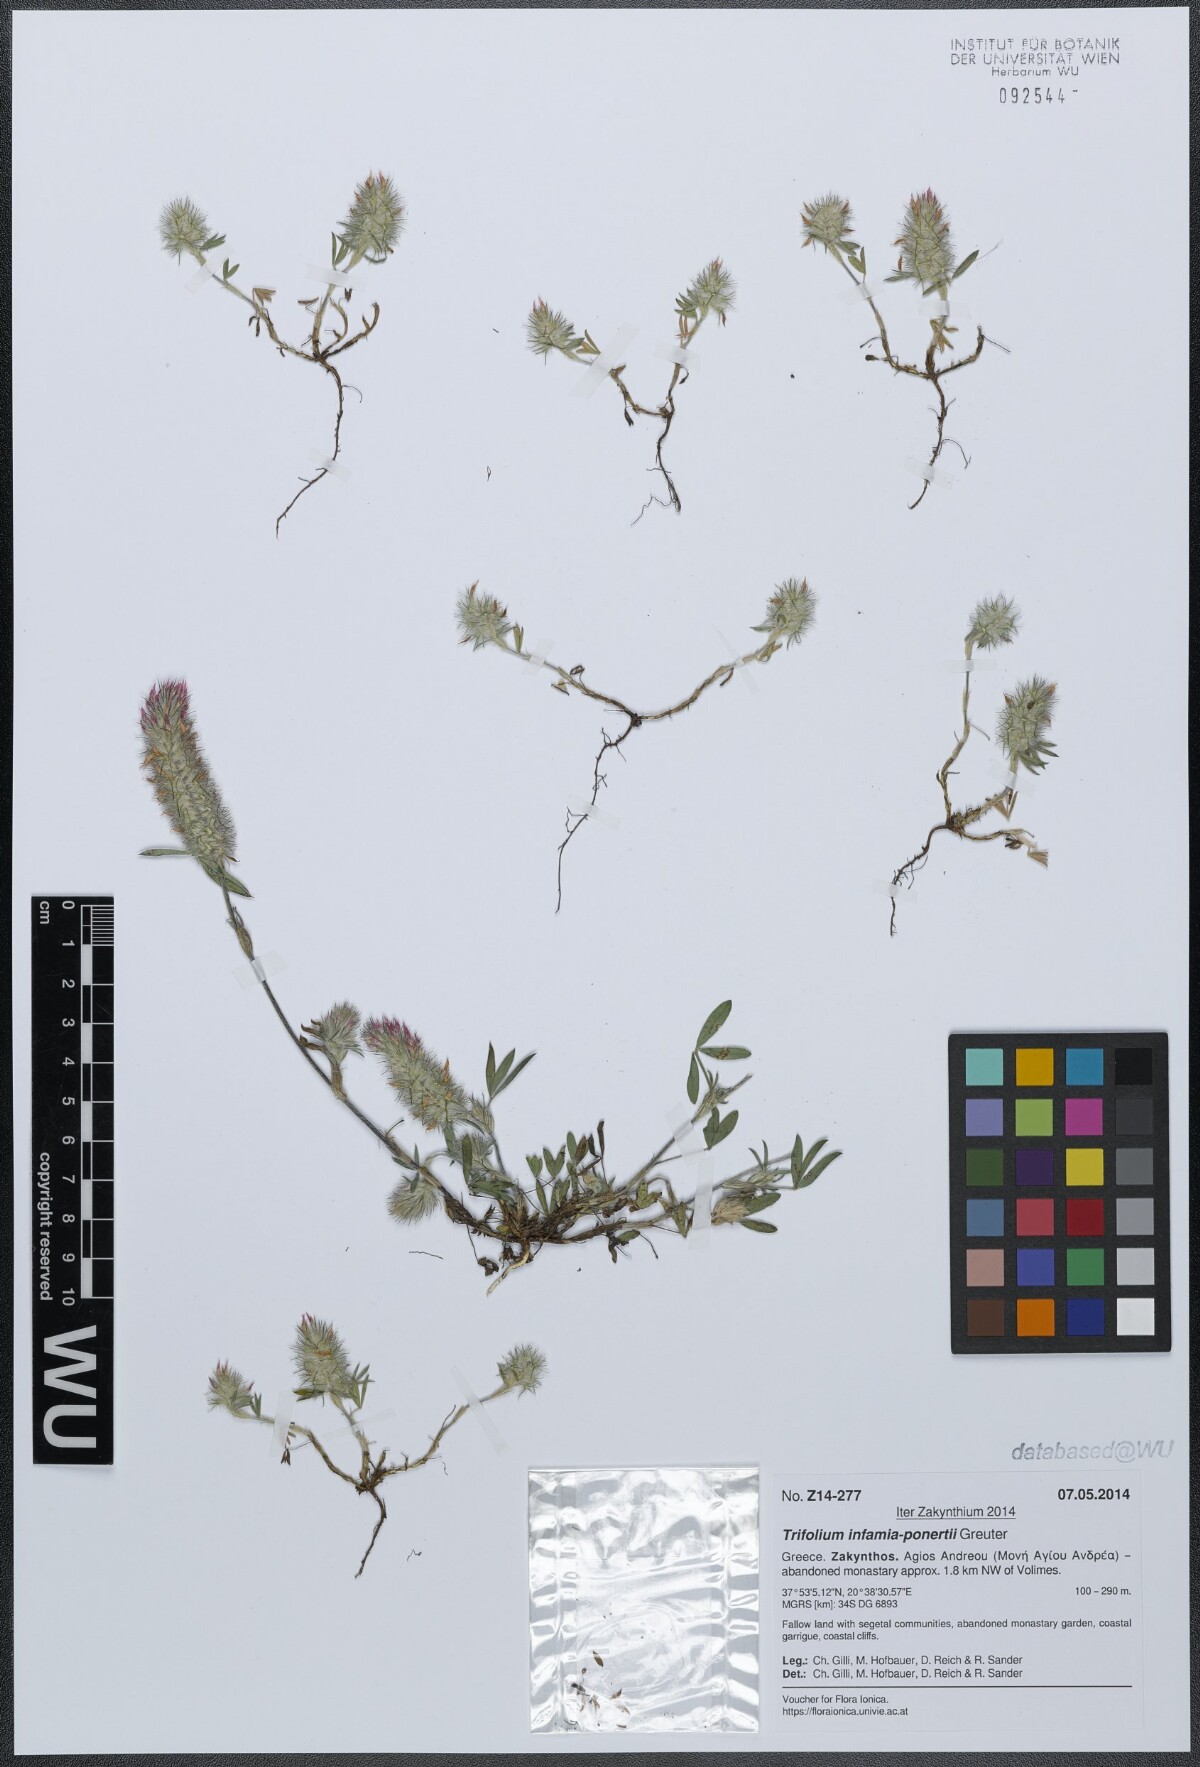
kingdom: Plantae
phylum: Tracheophyta
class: Magnoliopsida
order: Fabales
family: Fabaceae
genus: Trifolium
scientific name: Trifolium infamia-ponertii
